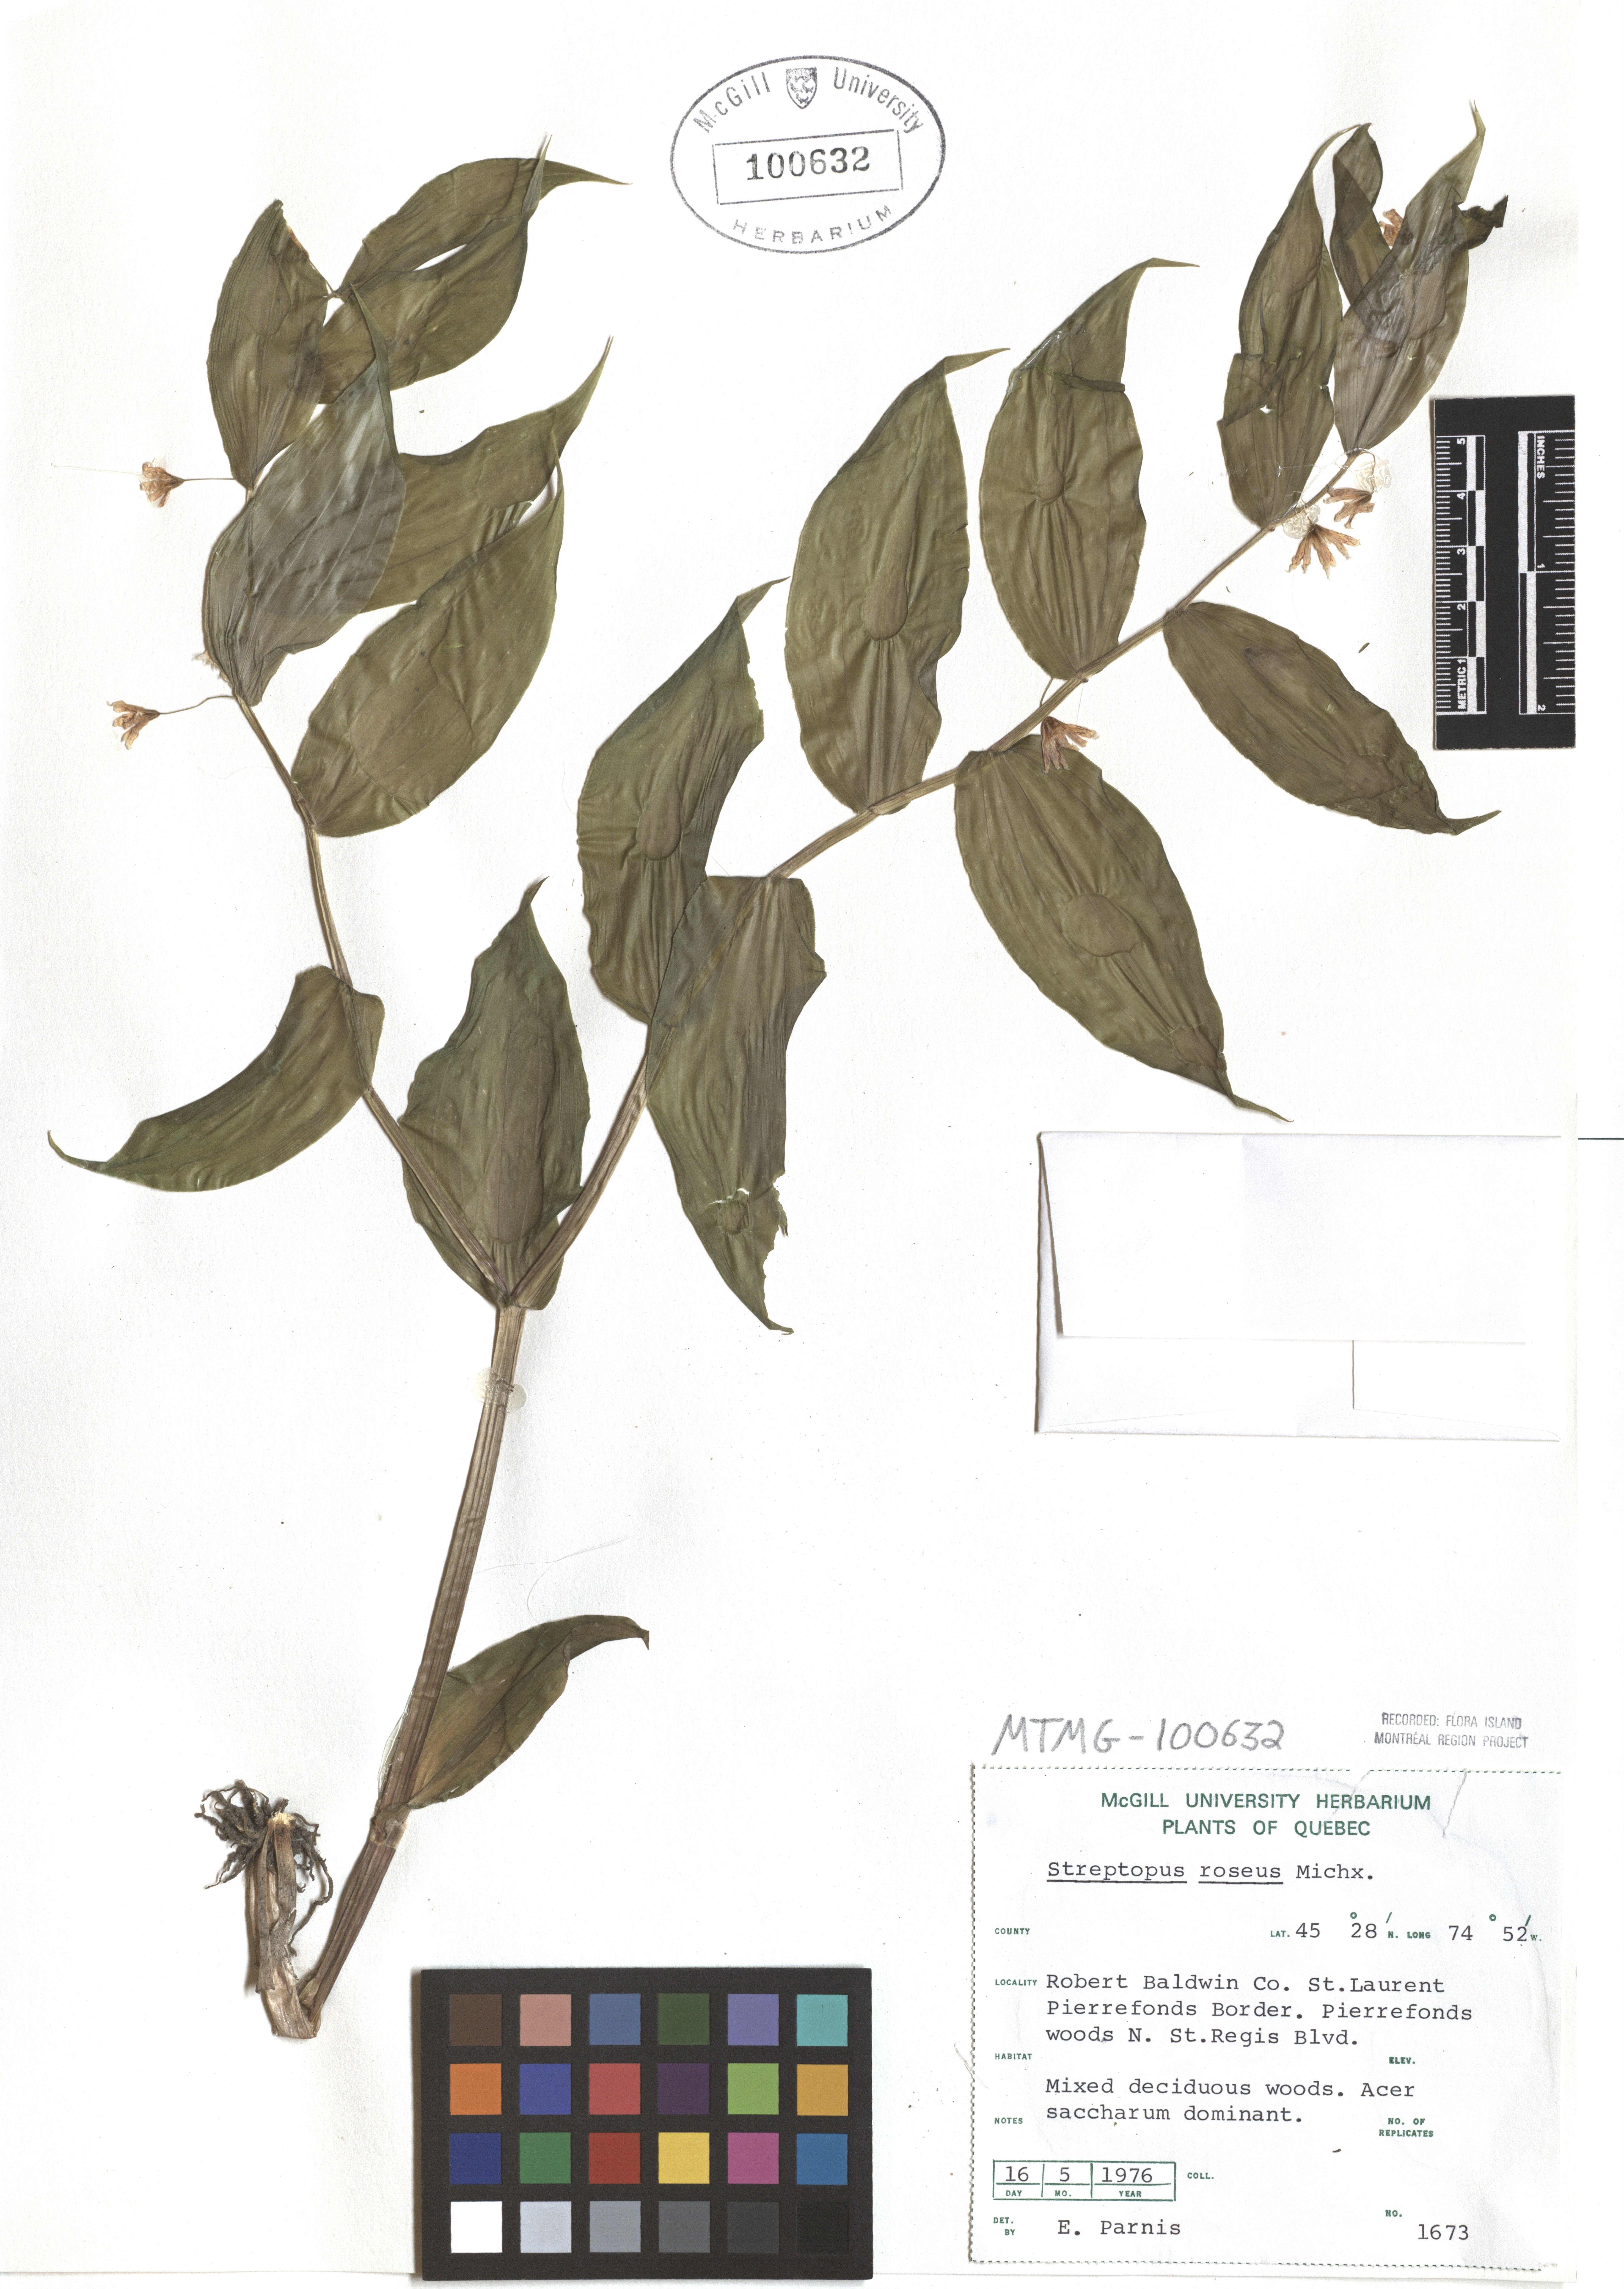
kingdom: Plantae
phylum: Tracheophyta
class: Liliopsida
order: Liliales
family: Liliaceae
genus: Streptopus
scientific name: Streptopus lanceolatus
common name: Rose mandarin
